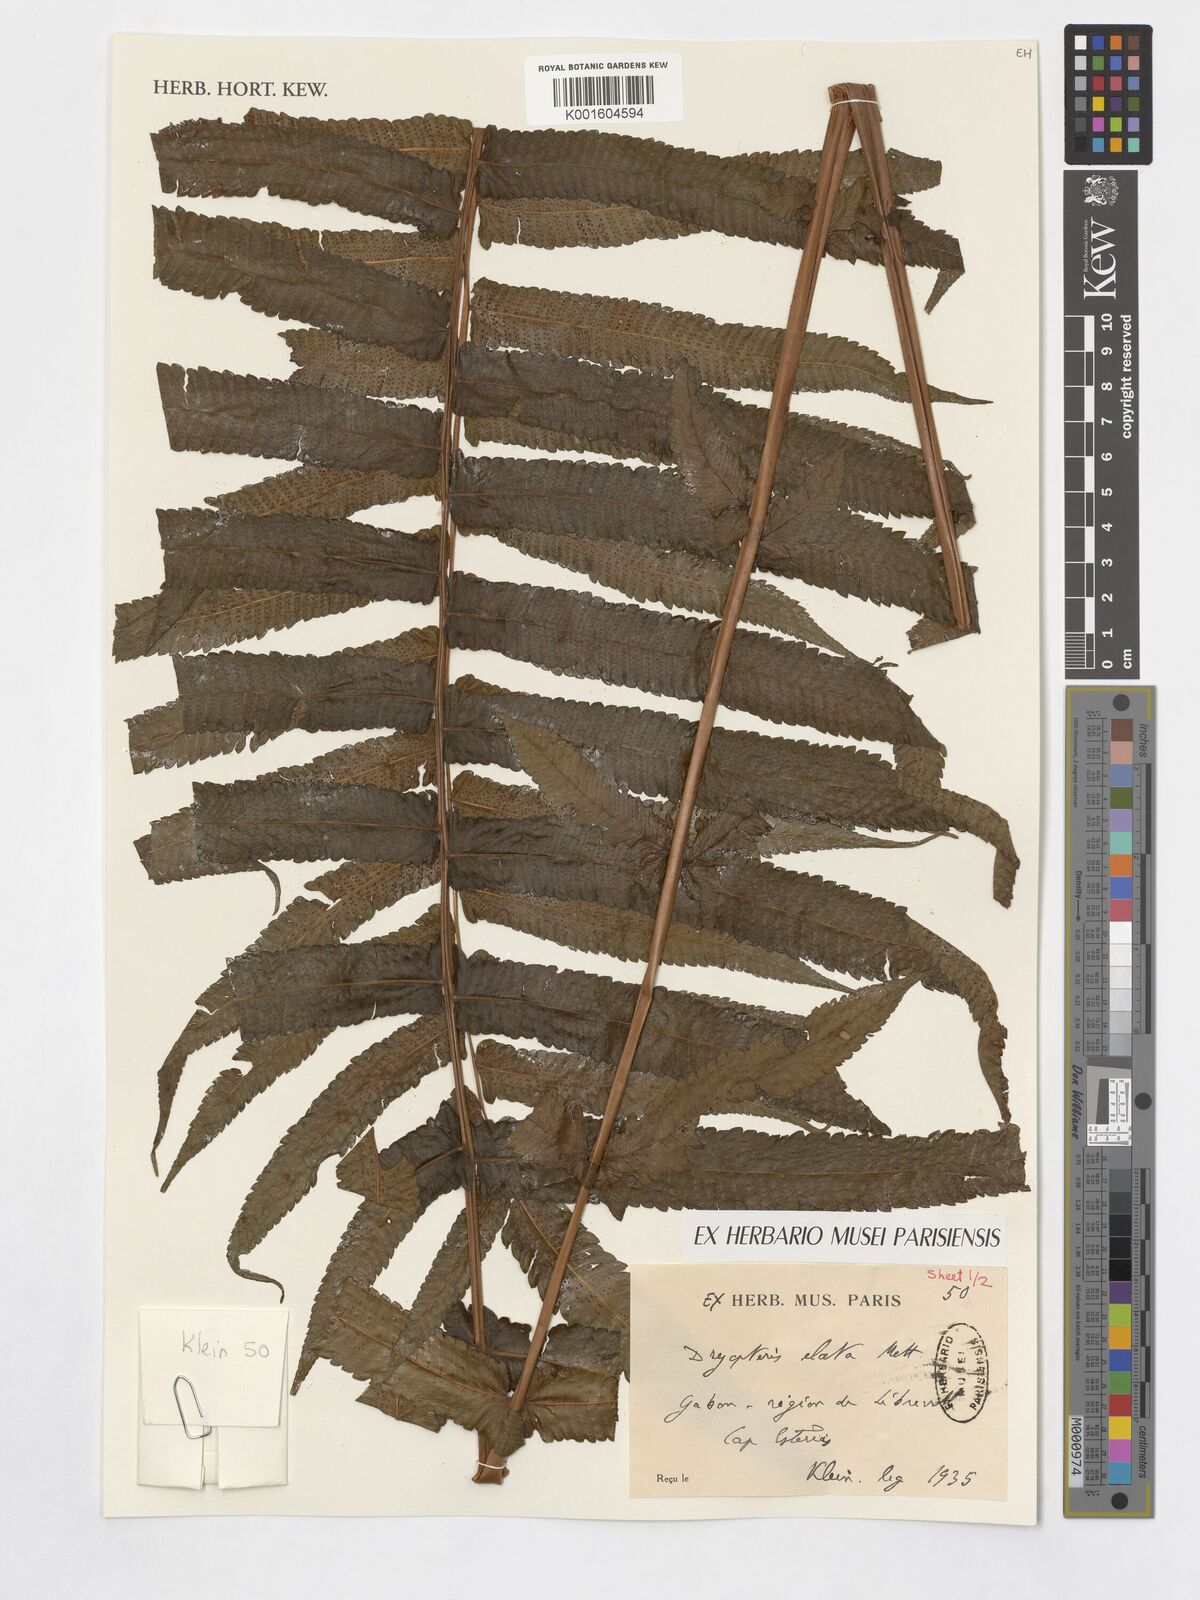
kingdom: Plantae
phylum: Tracheophyta
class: Polypodiopsida
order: Polypodiales
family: Thelypteridaceae
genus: Pneumatopteris
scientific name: Pneumatopteris venulosa
